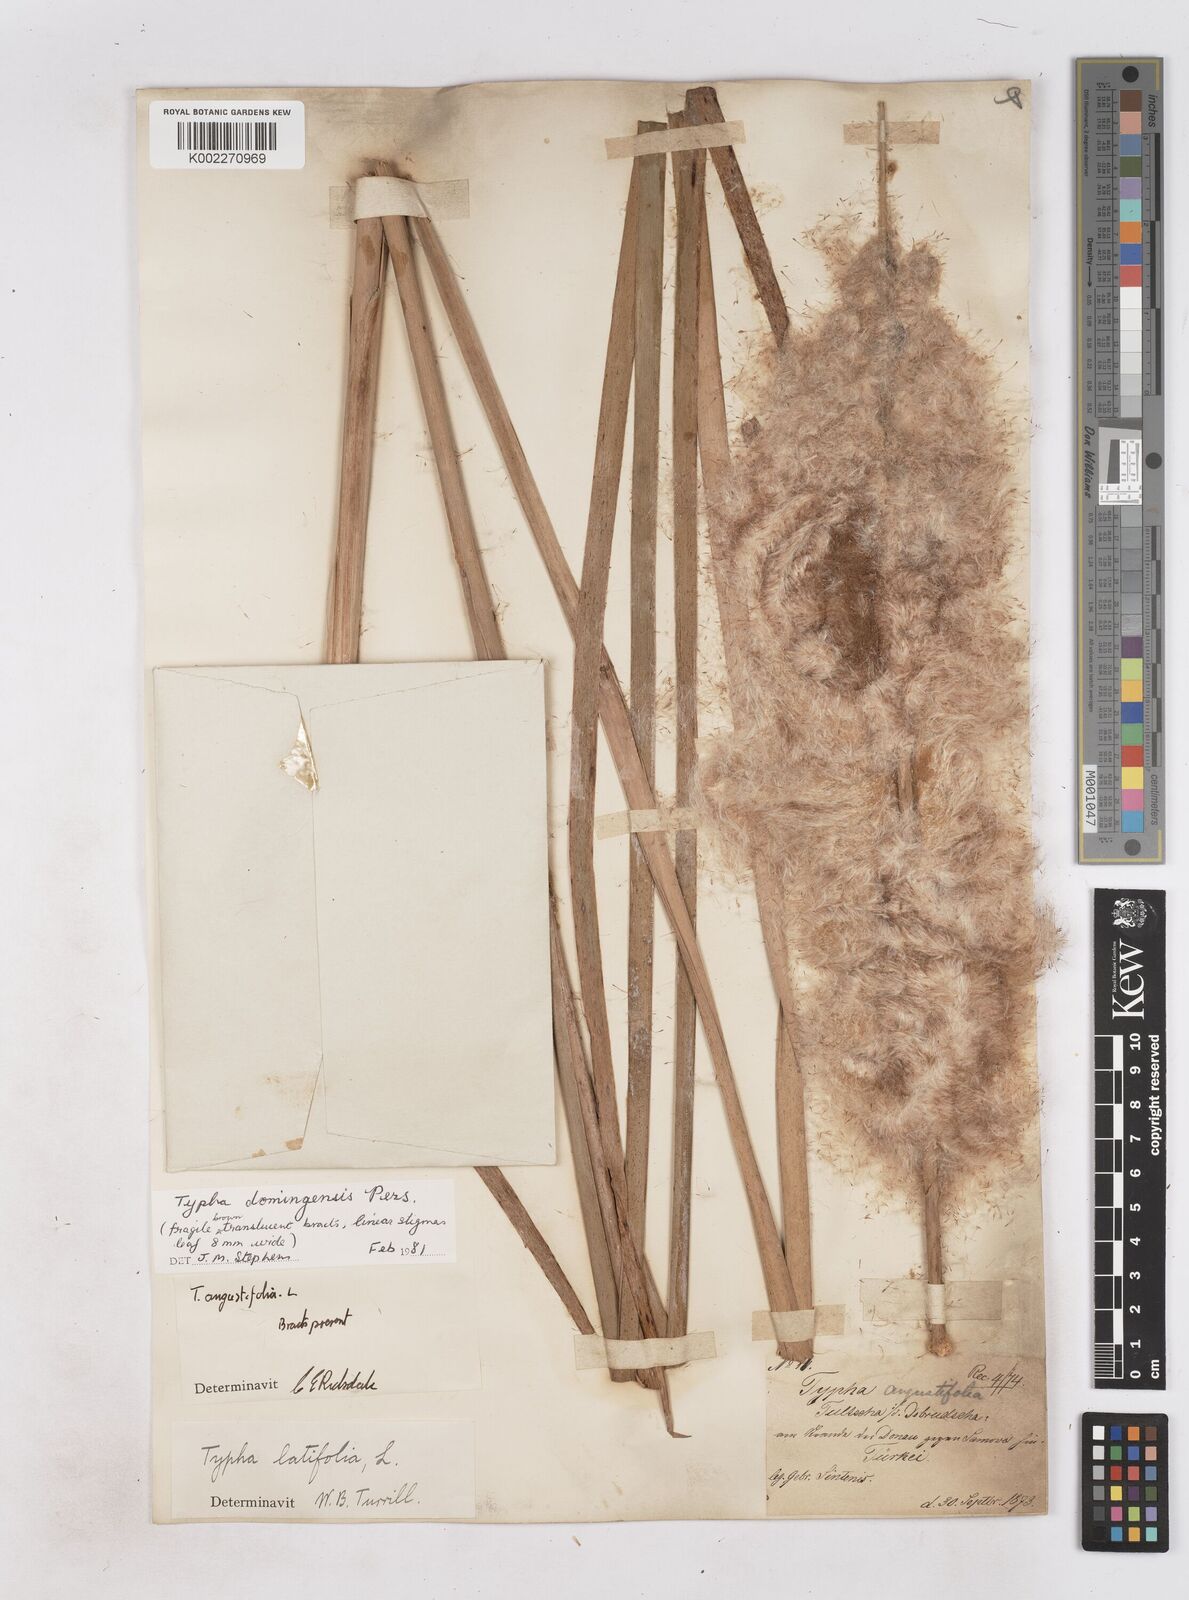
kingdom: Plantae
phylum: Tracheophyta
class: Liliopsida
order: Poales
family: Typhaceae
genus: Typha
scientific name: Typha domingensis
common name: Southern cattail
